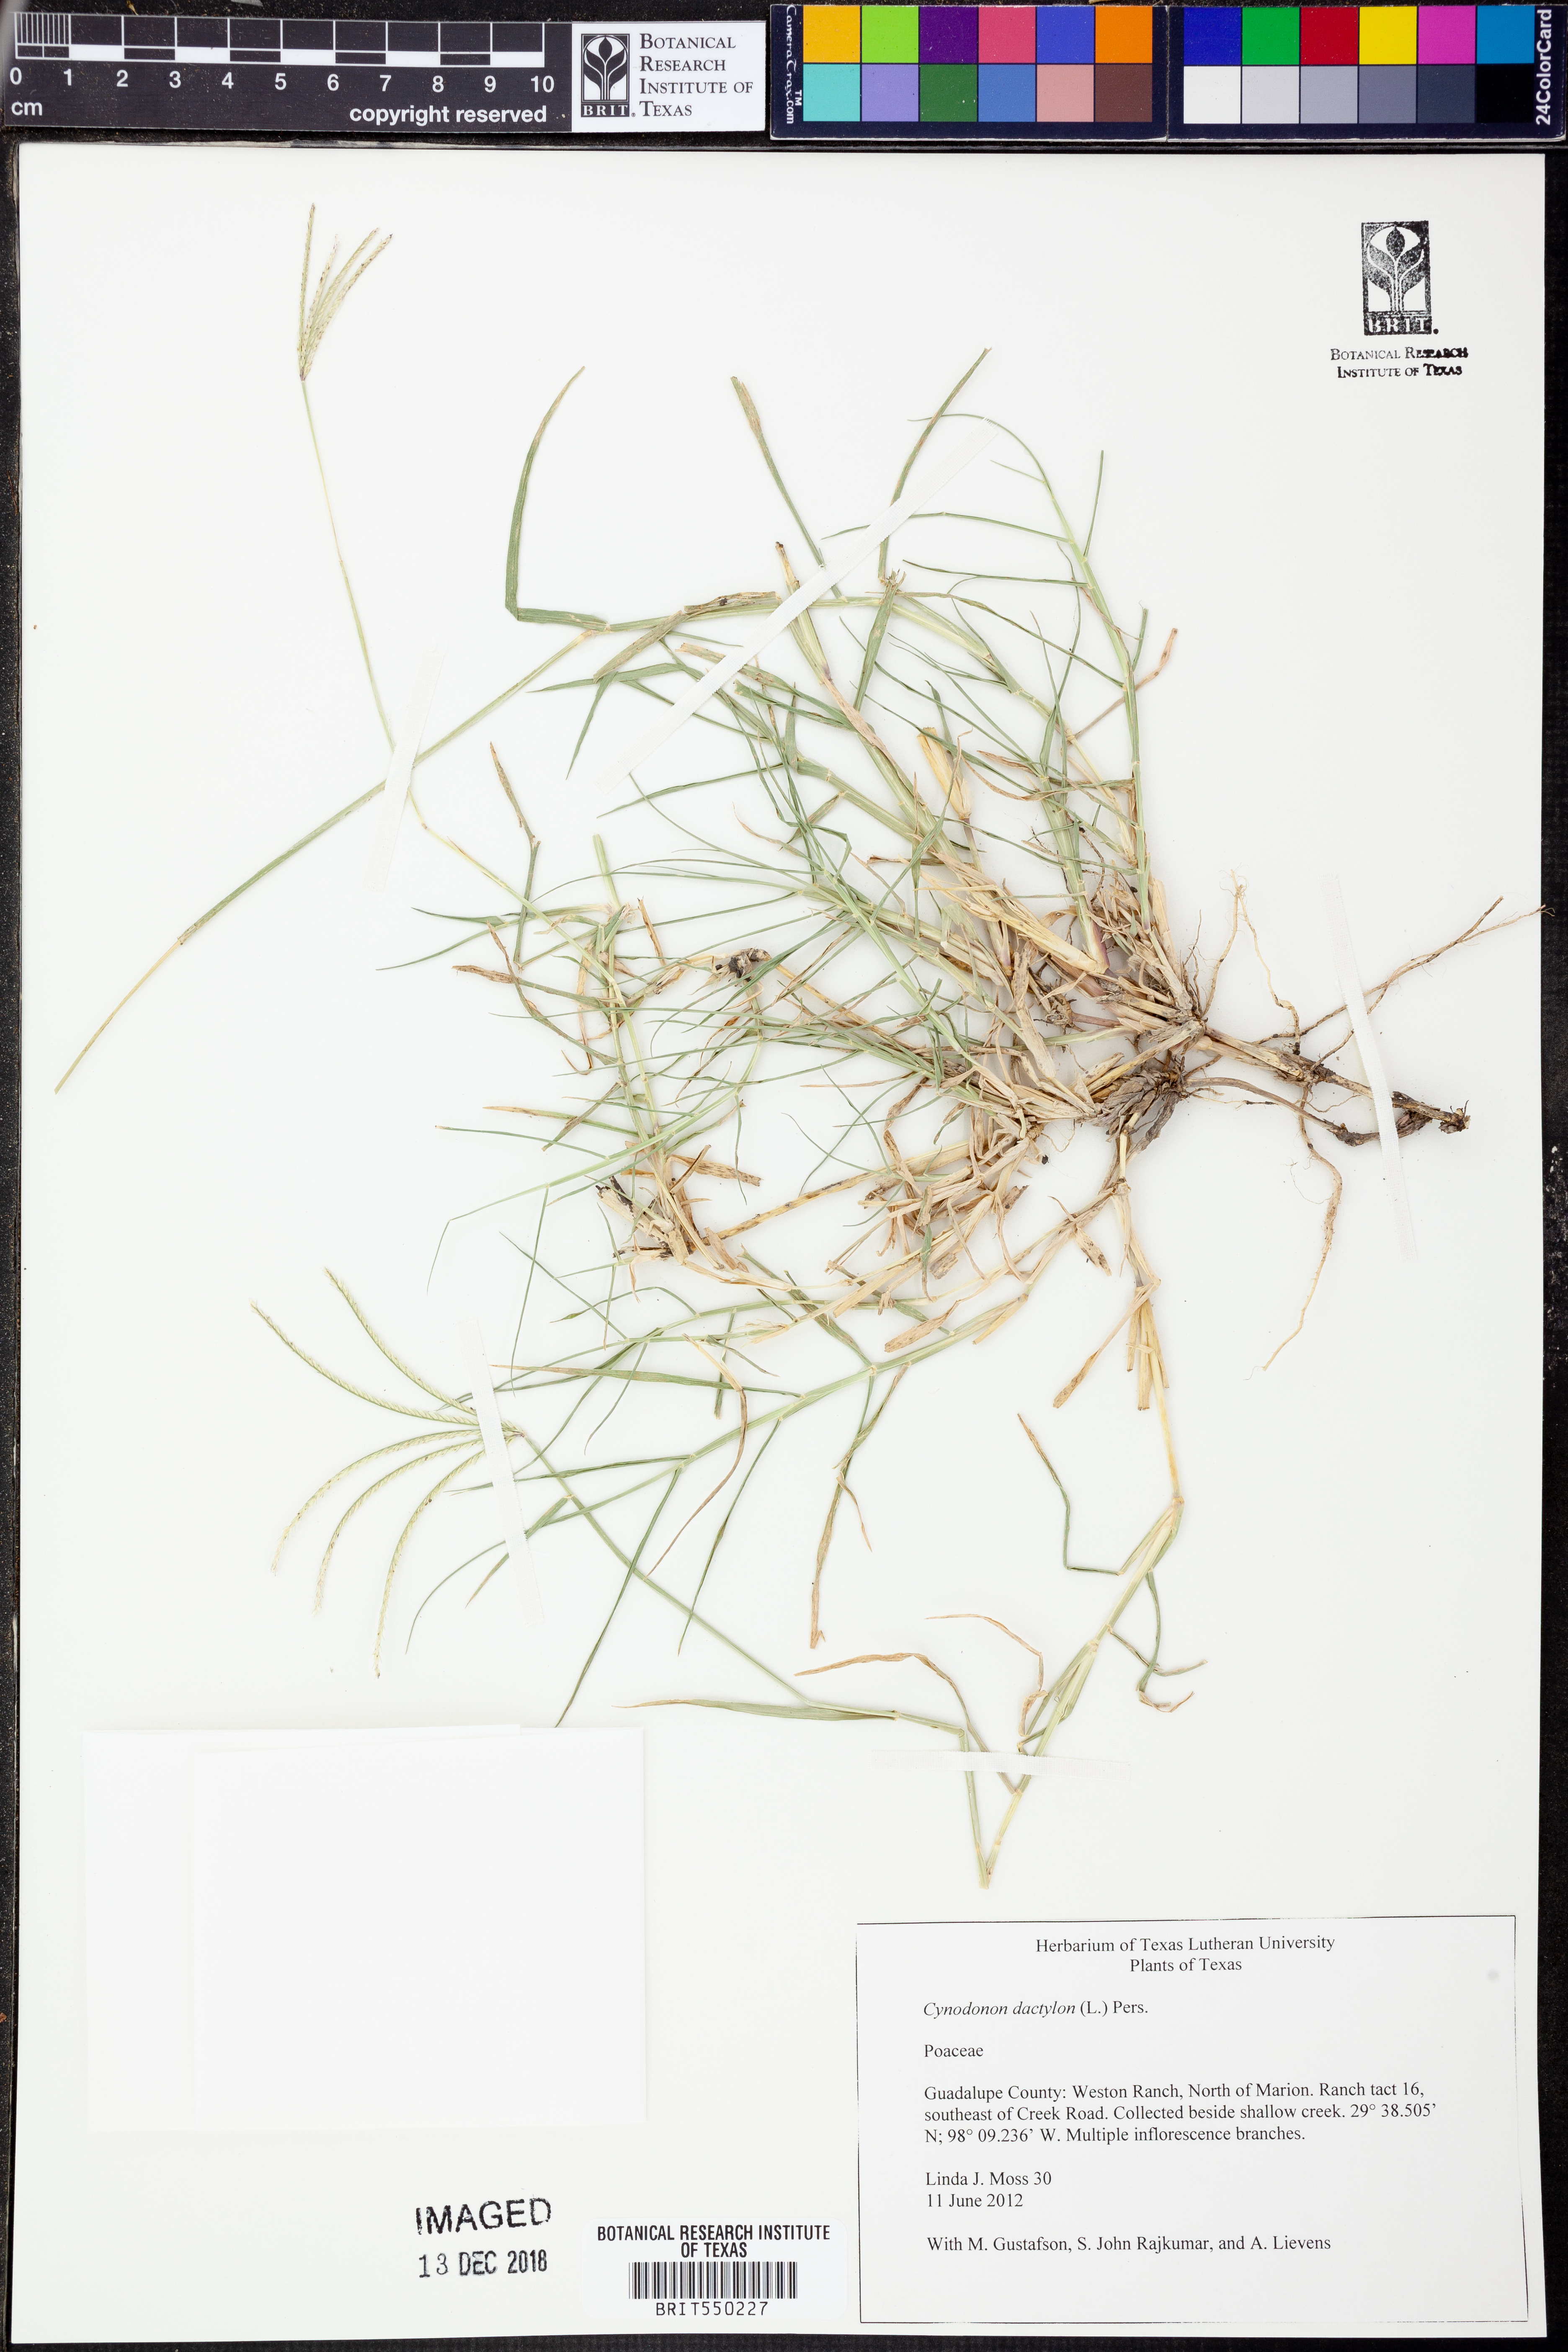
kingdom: Plantae
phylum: Tracheophyta
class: Liliopsida
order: Poales
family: Poaceae
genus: Cynodon
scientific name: Cynodon dactylon
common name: Bermuda grass
